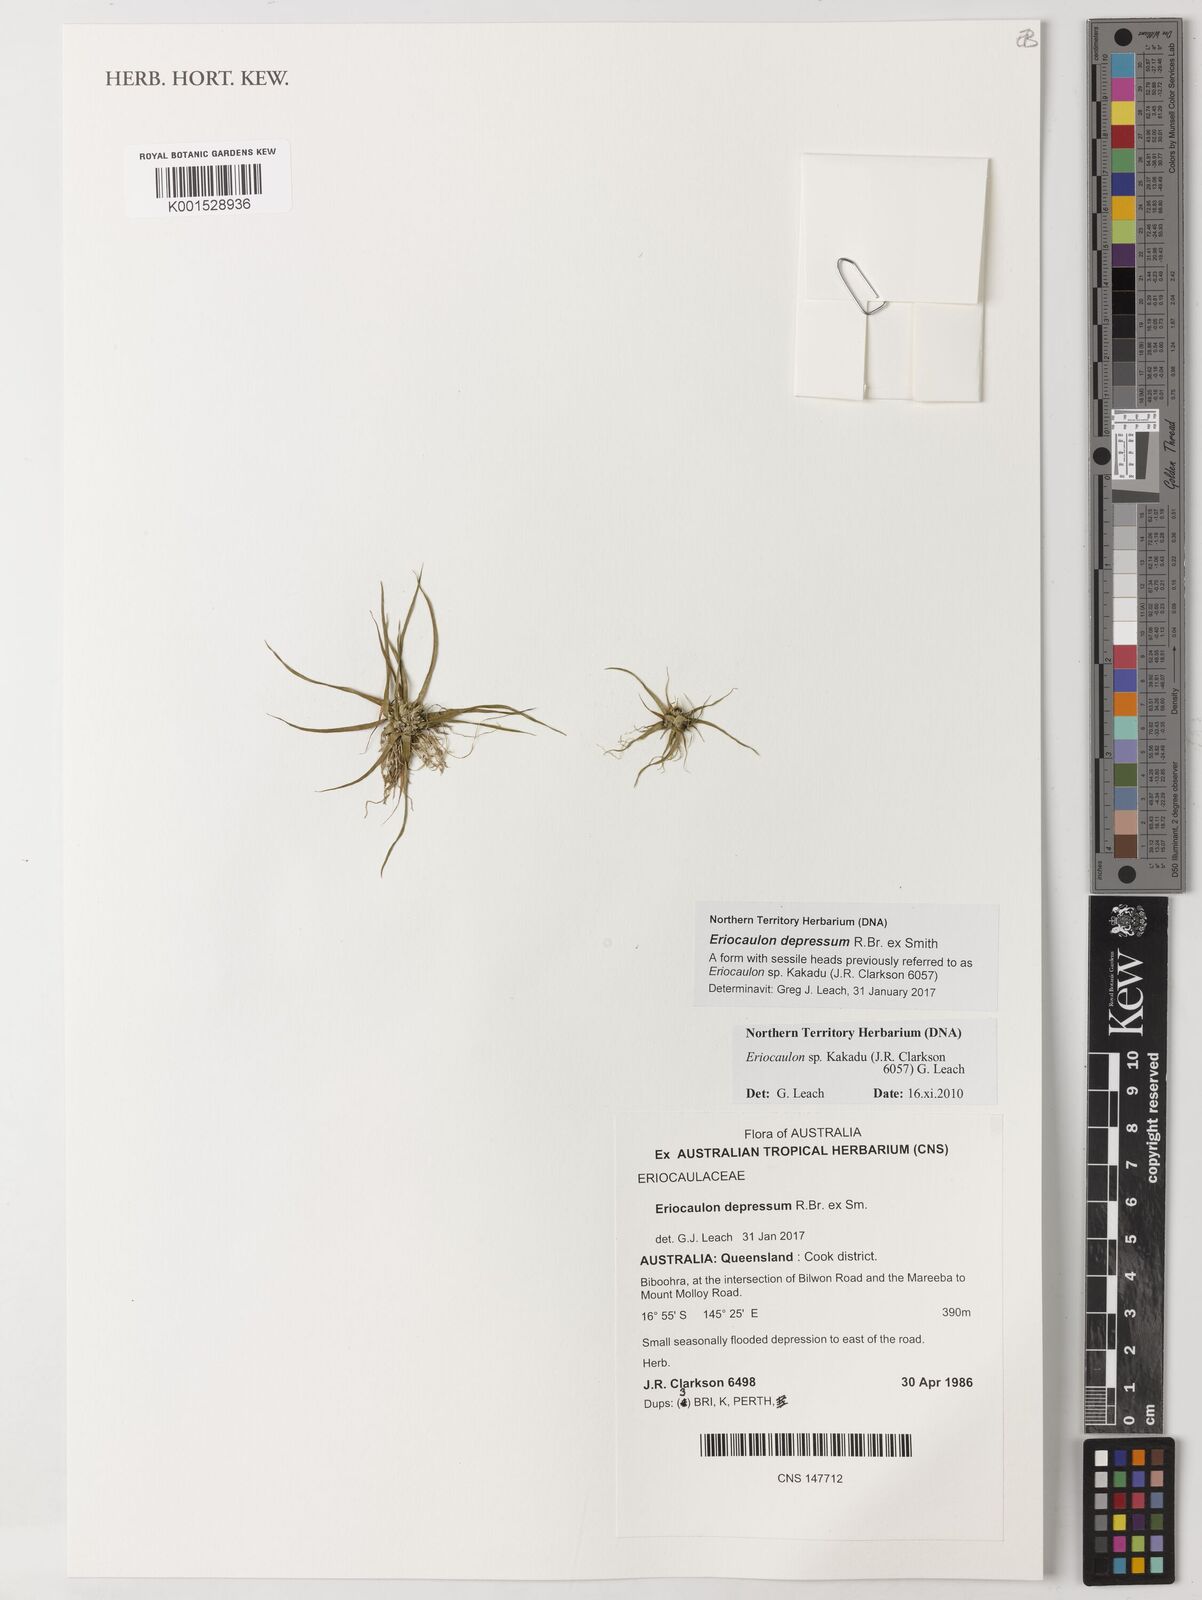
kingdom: Plantae
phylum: Tracheophyta
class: Liliopsida
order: Poales
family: Eriocaulaceae
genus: Eriocaulon
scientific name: Eriocaulon depressum
